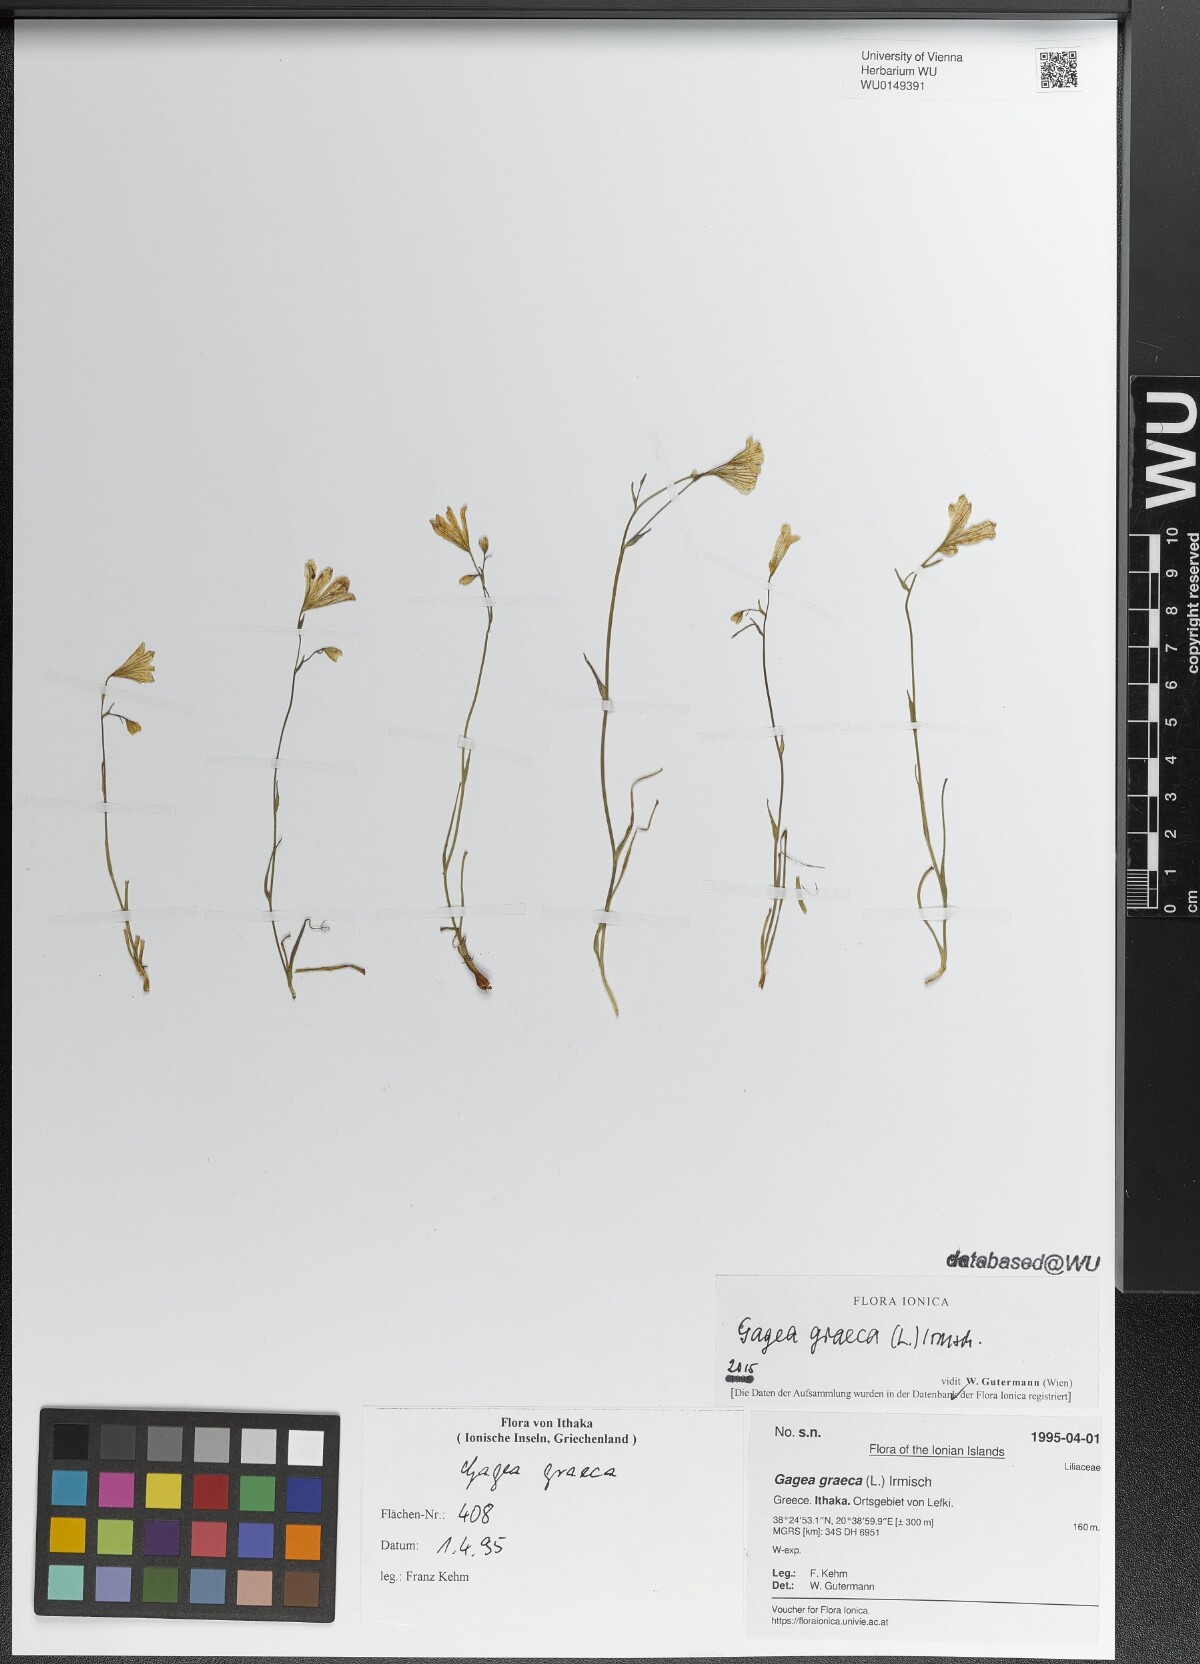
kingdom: Plantae
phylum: Tracheophyta
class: Liliopsida
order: Liliales
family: Liliaceae
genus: Gagea
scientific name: Gagea graeca
